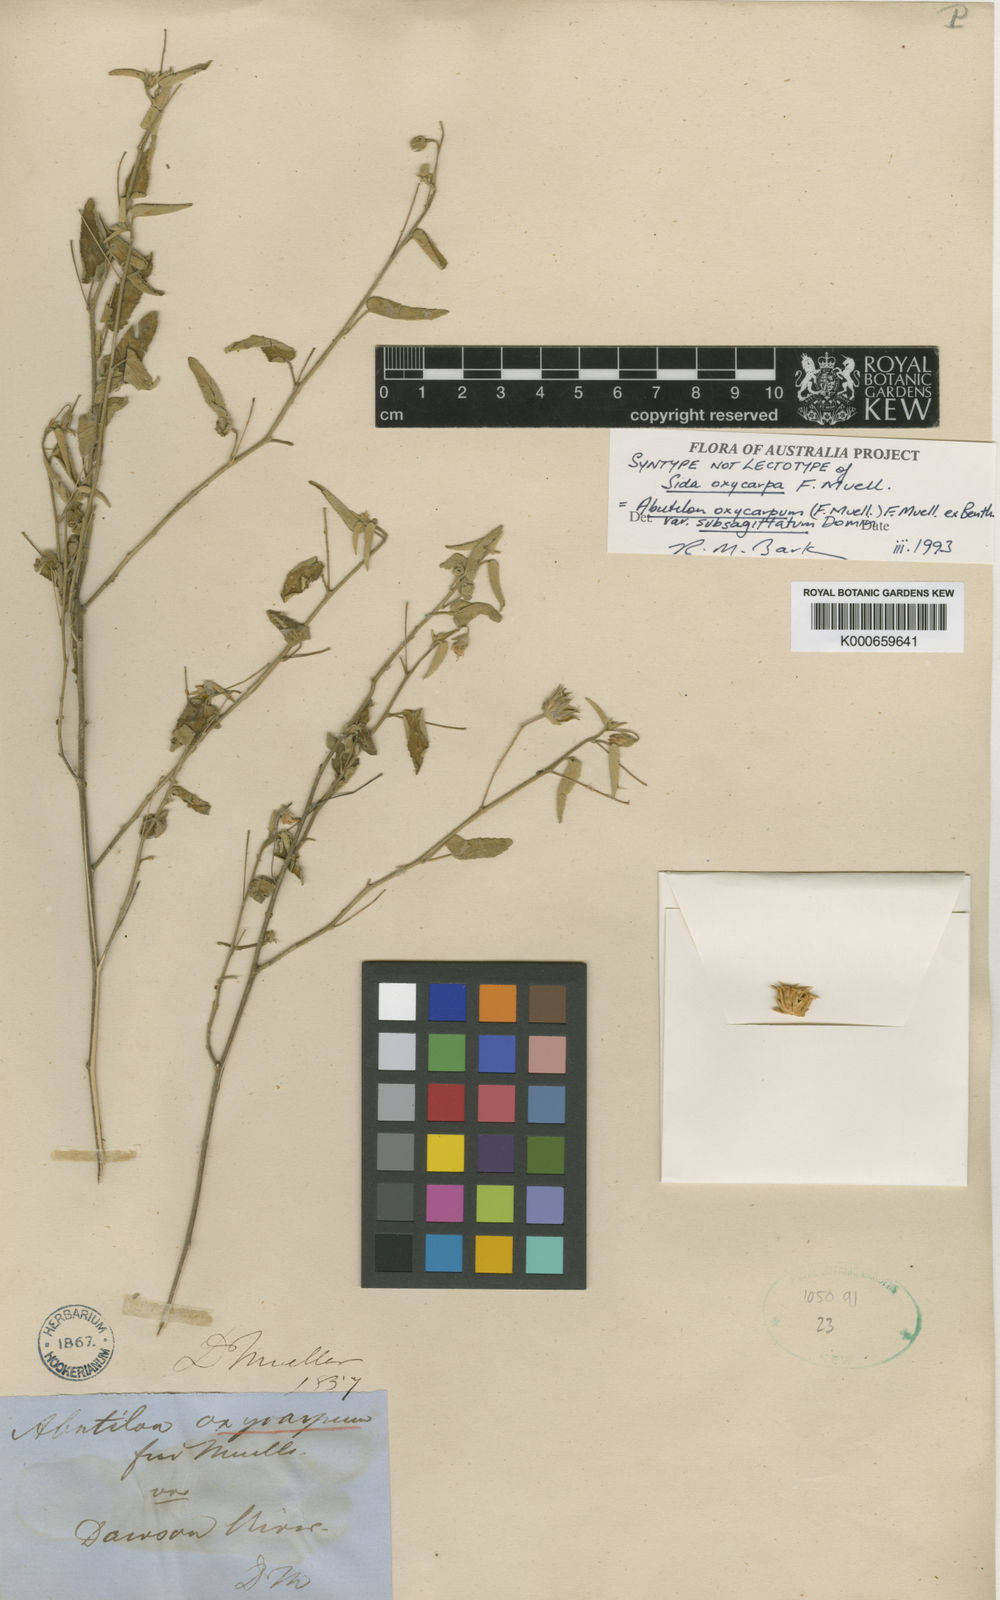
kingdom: Plantae
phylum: Tracheophyta
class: Magnoliopsida
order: Malvales
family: Malvaceae
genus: Abutilon
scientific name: Abutilon oxycarpum
